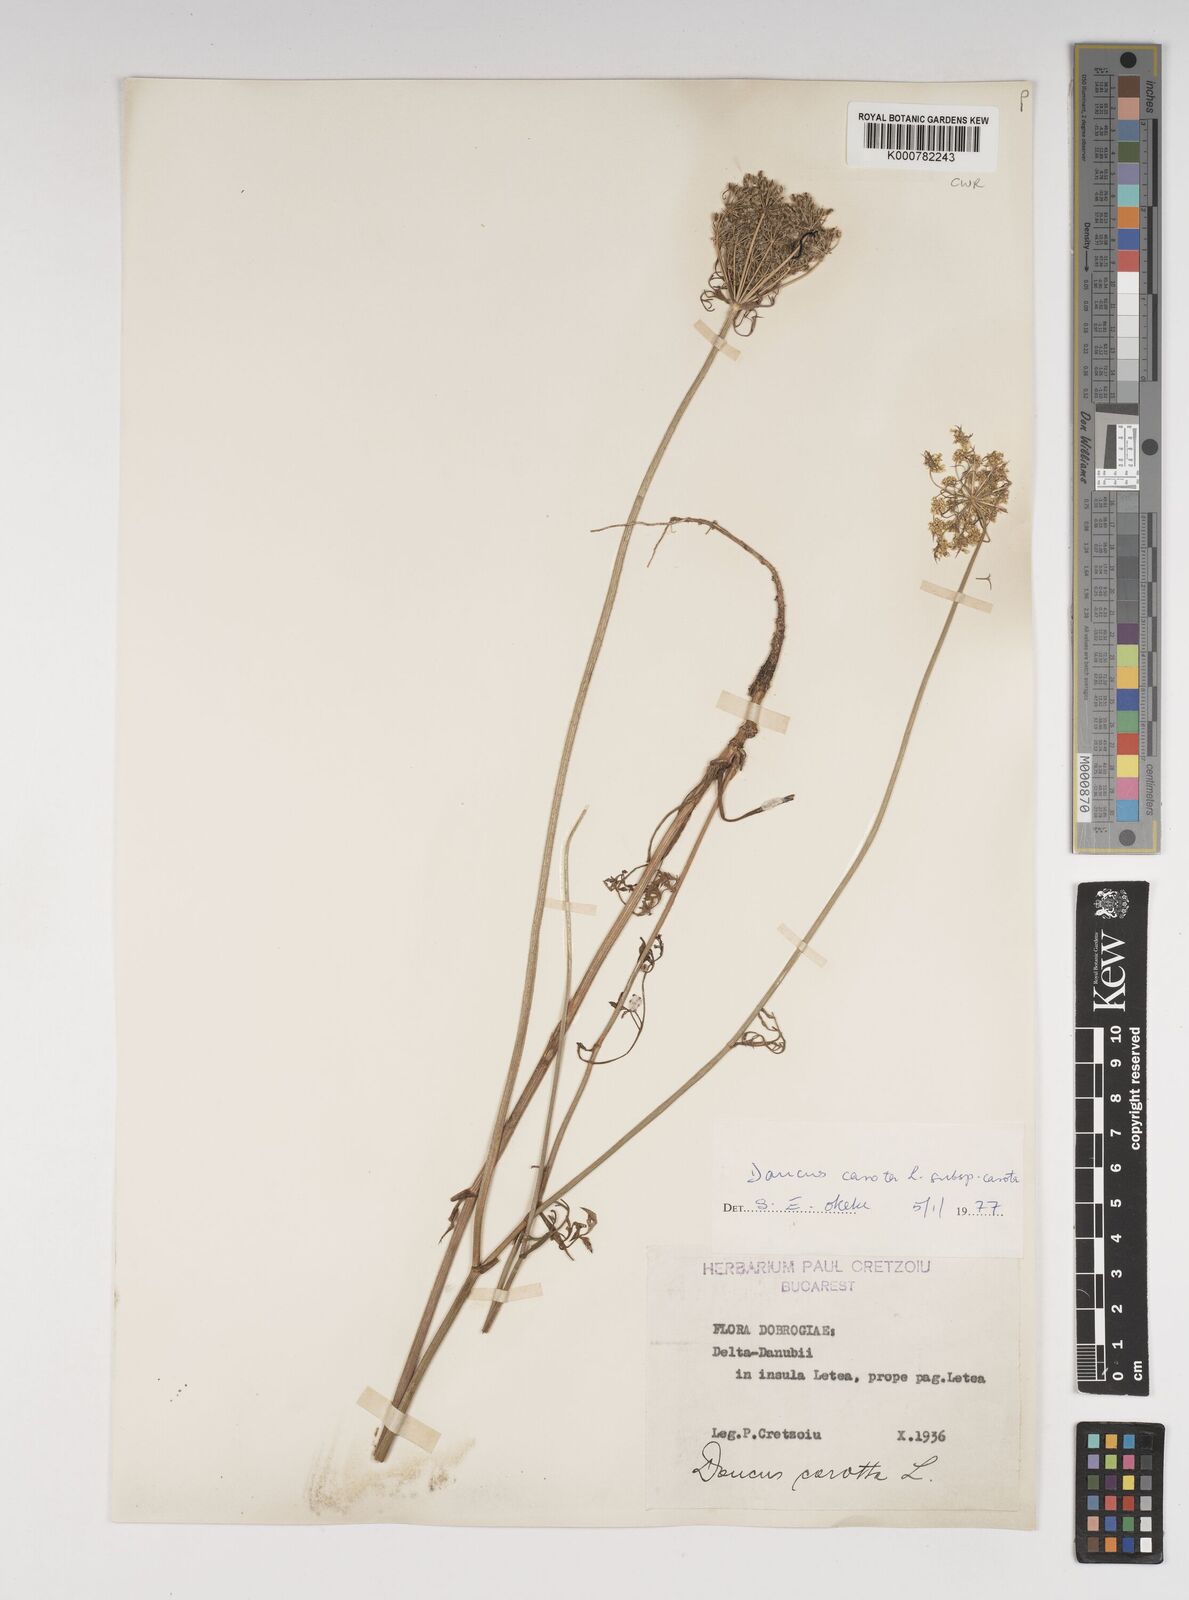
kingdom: Plantae
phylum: Tracheophyta
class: Magnoliopsida
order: Apiales
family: Apiaceae
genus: Daucus
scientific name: Daucus carota
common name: Wild carrot
